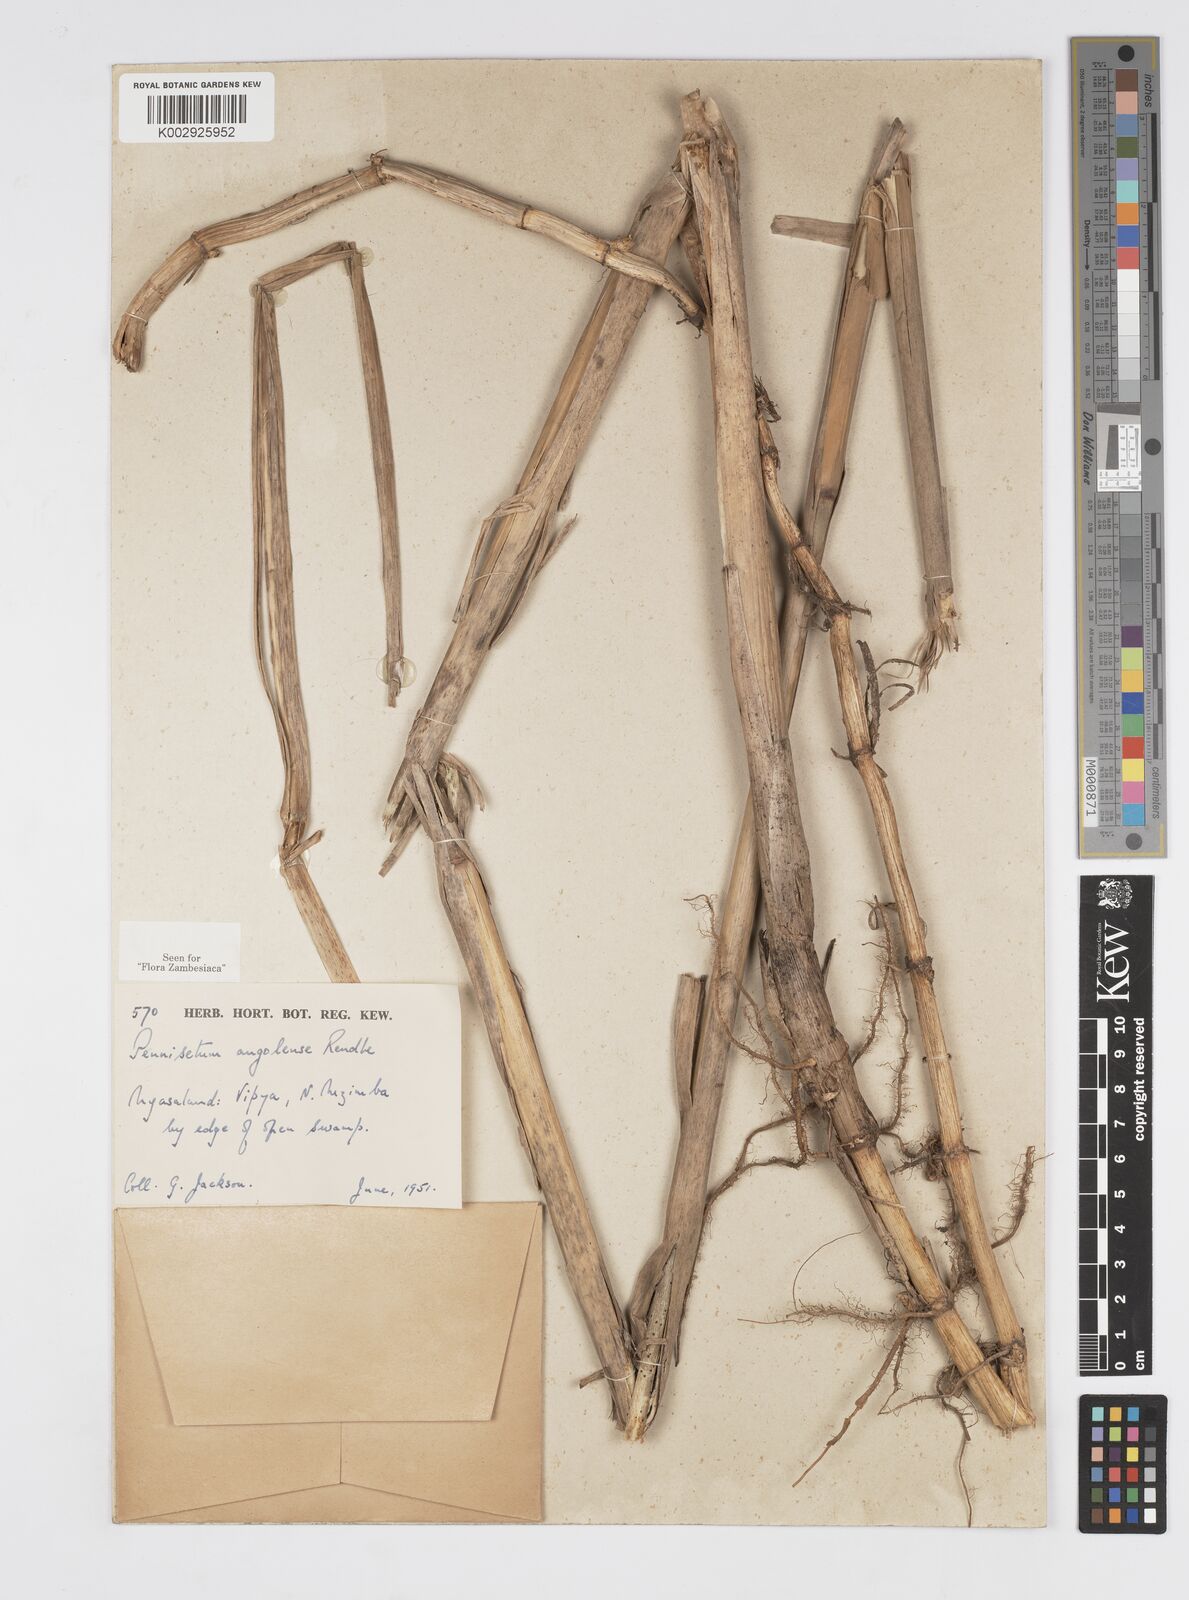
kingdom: Plantae
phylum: Tracheophyta
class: Liliopsida
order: Poales
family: Poaceae
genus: Cenchrus
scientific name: Cenchrus caudatus
